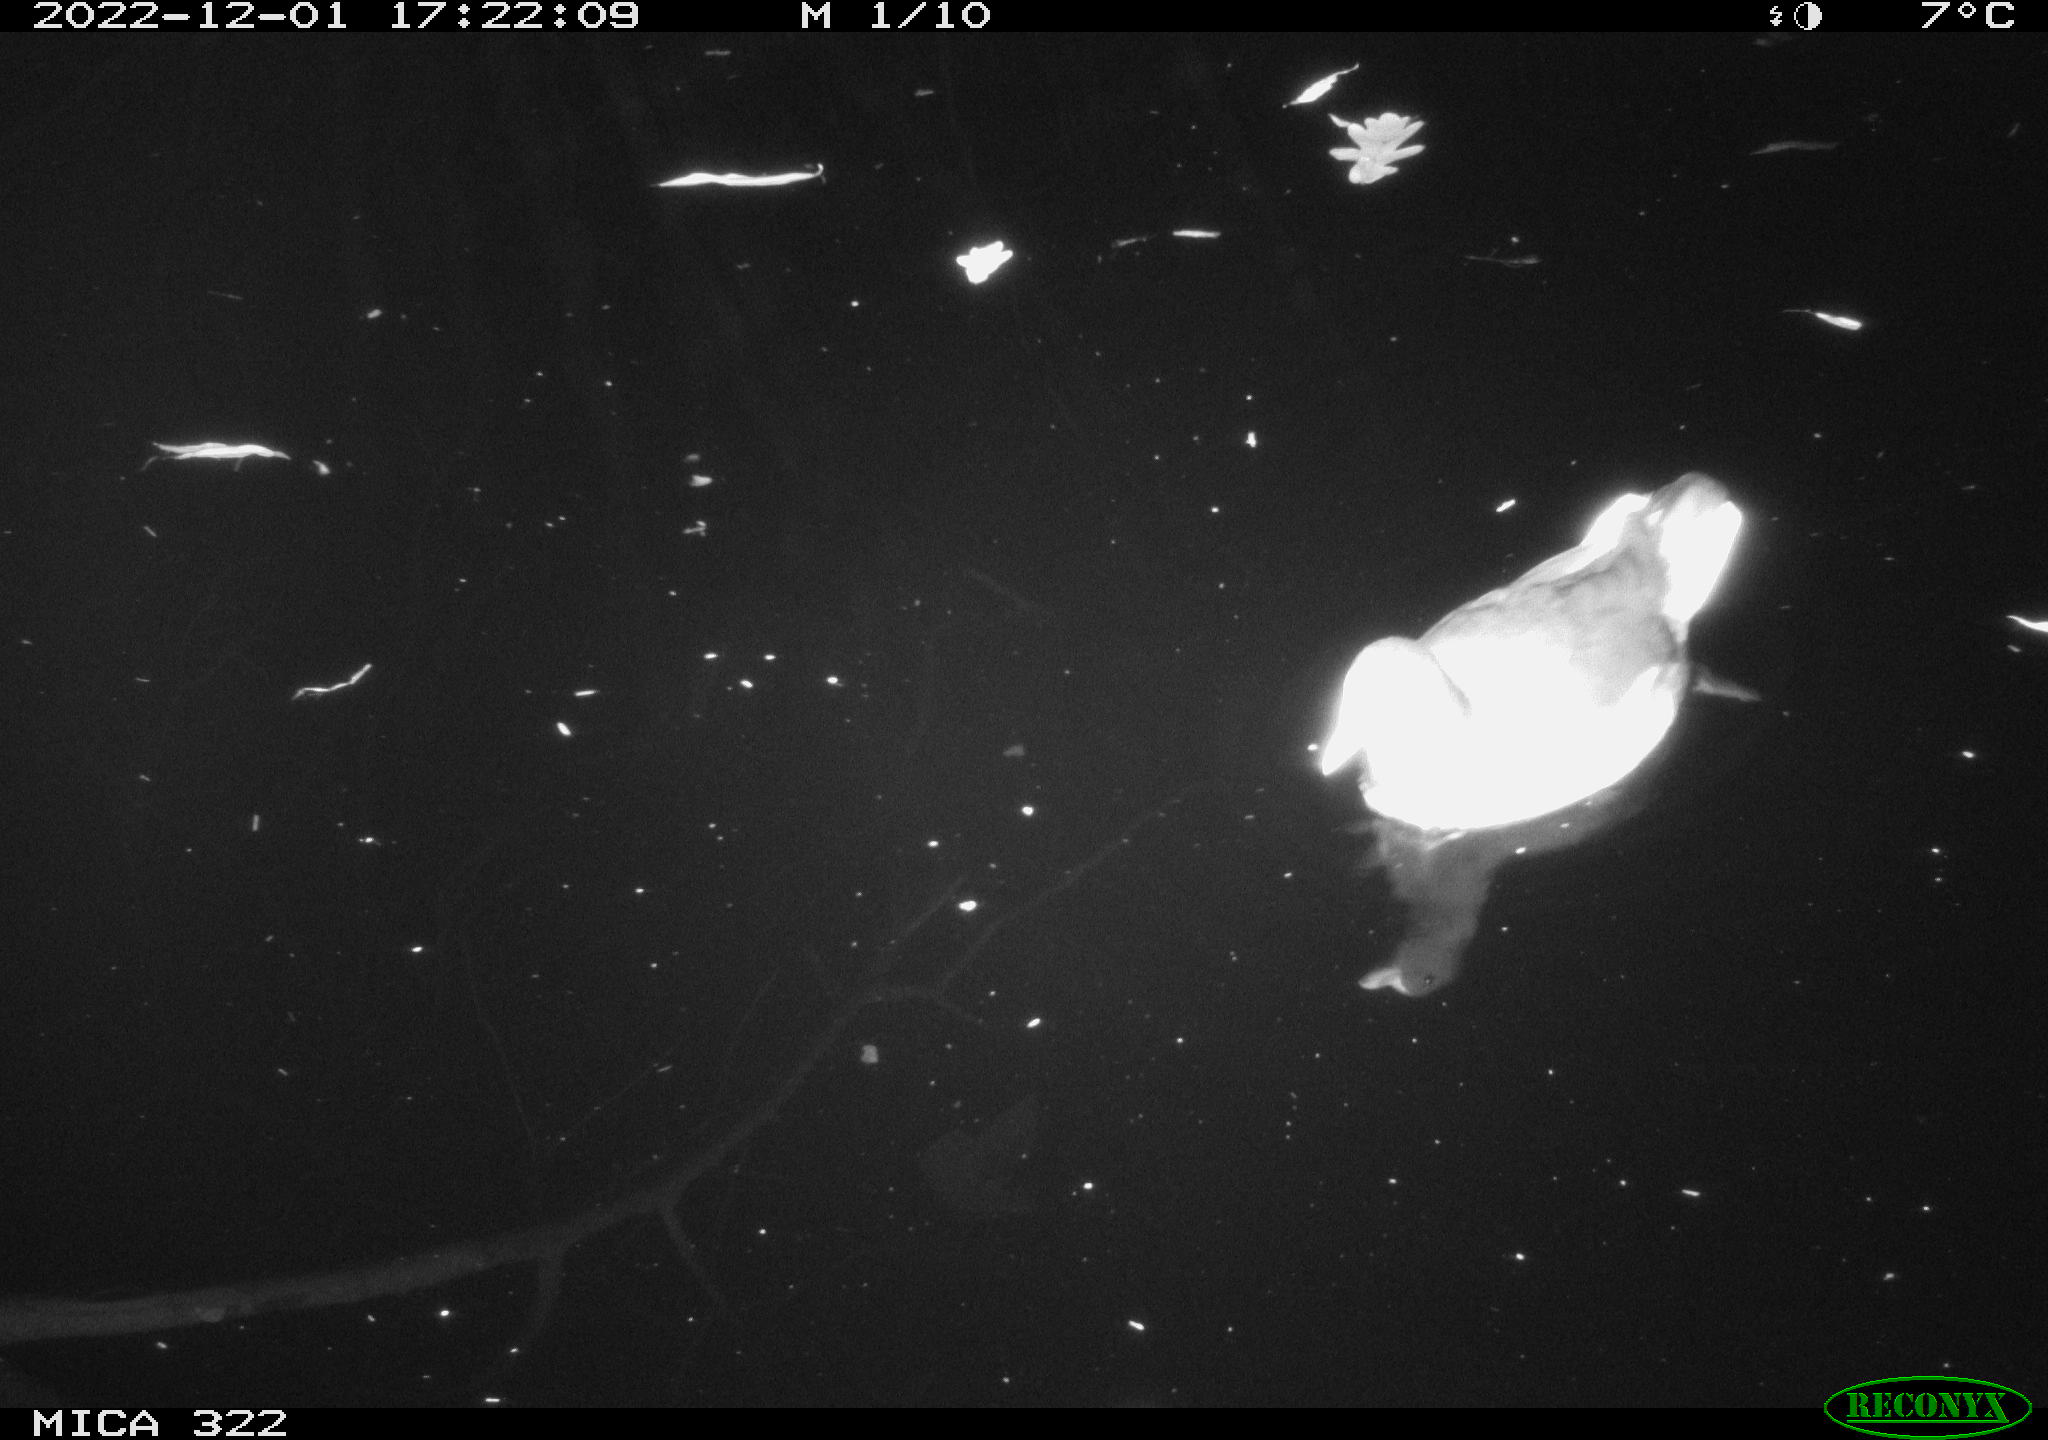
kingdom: Animalia
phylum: Chordata
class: Aves
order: Gruiformes
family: Rallidae
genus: Gallinula
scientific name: Gallinula chloropus
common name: Common moorhen
